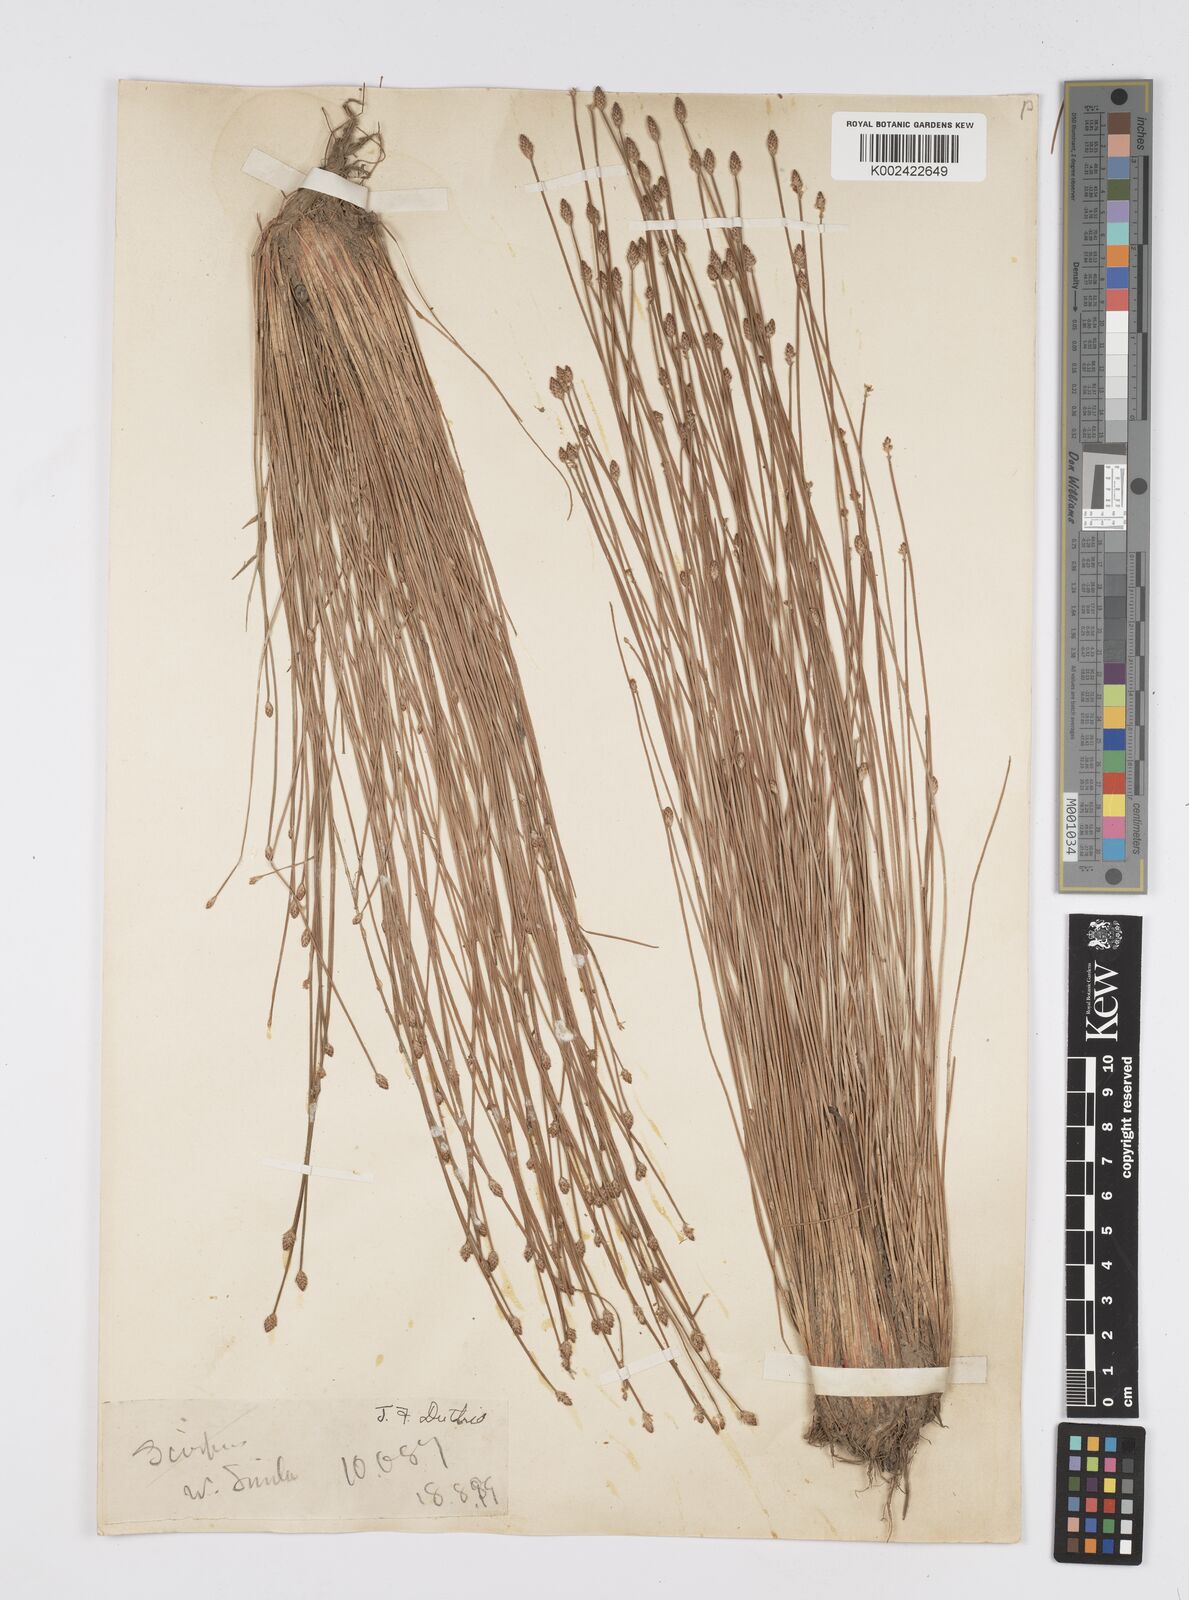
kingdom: Plantae
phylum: Tracheophyta
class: Liliopsida
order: Poales
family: Cyperaceae
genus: Eleocharis
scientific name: Eleocharis pellucida
